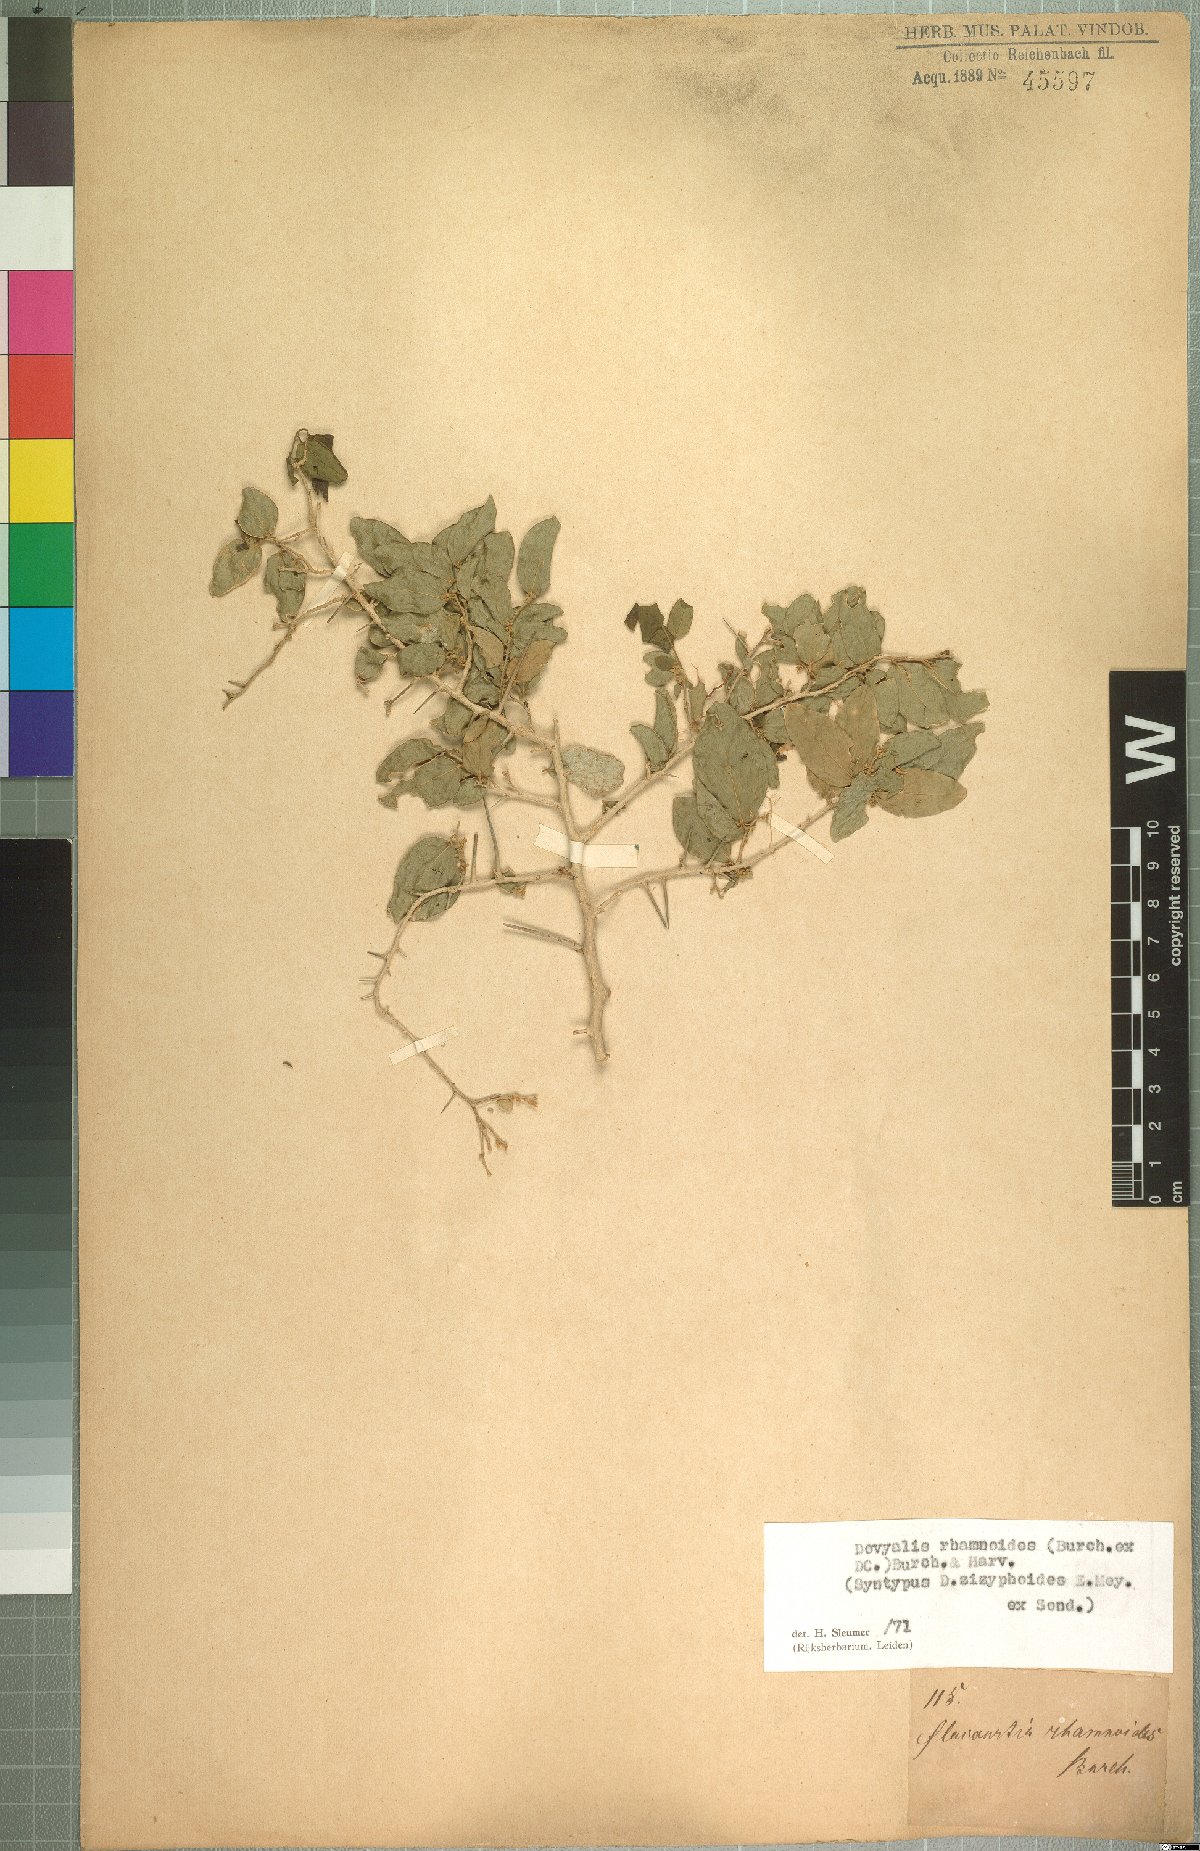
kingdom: Plantae
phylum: Tracheophyta
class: Magnoliopsida
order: Malpighiales
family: Salicaceae
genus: Dovyalis
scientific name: Dovyalis rhamnoides
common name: Sourberry
